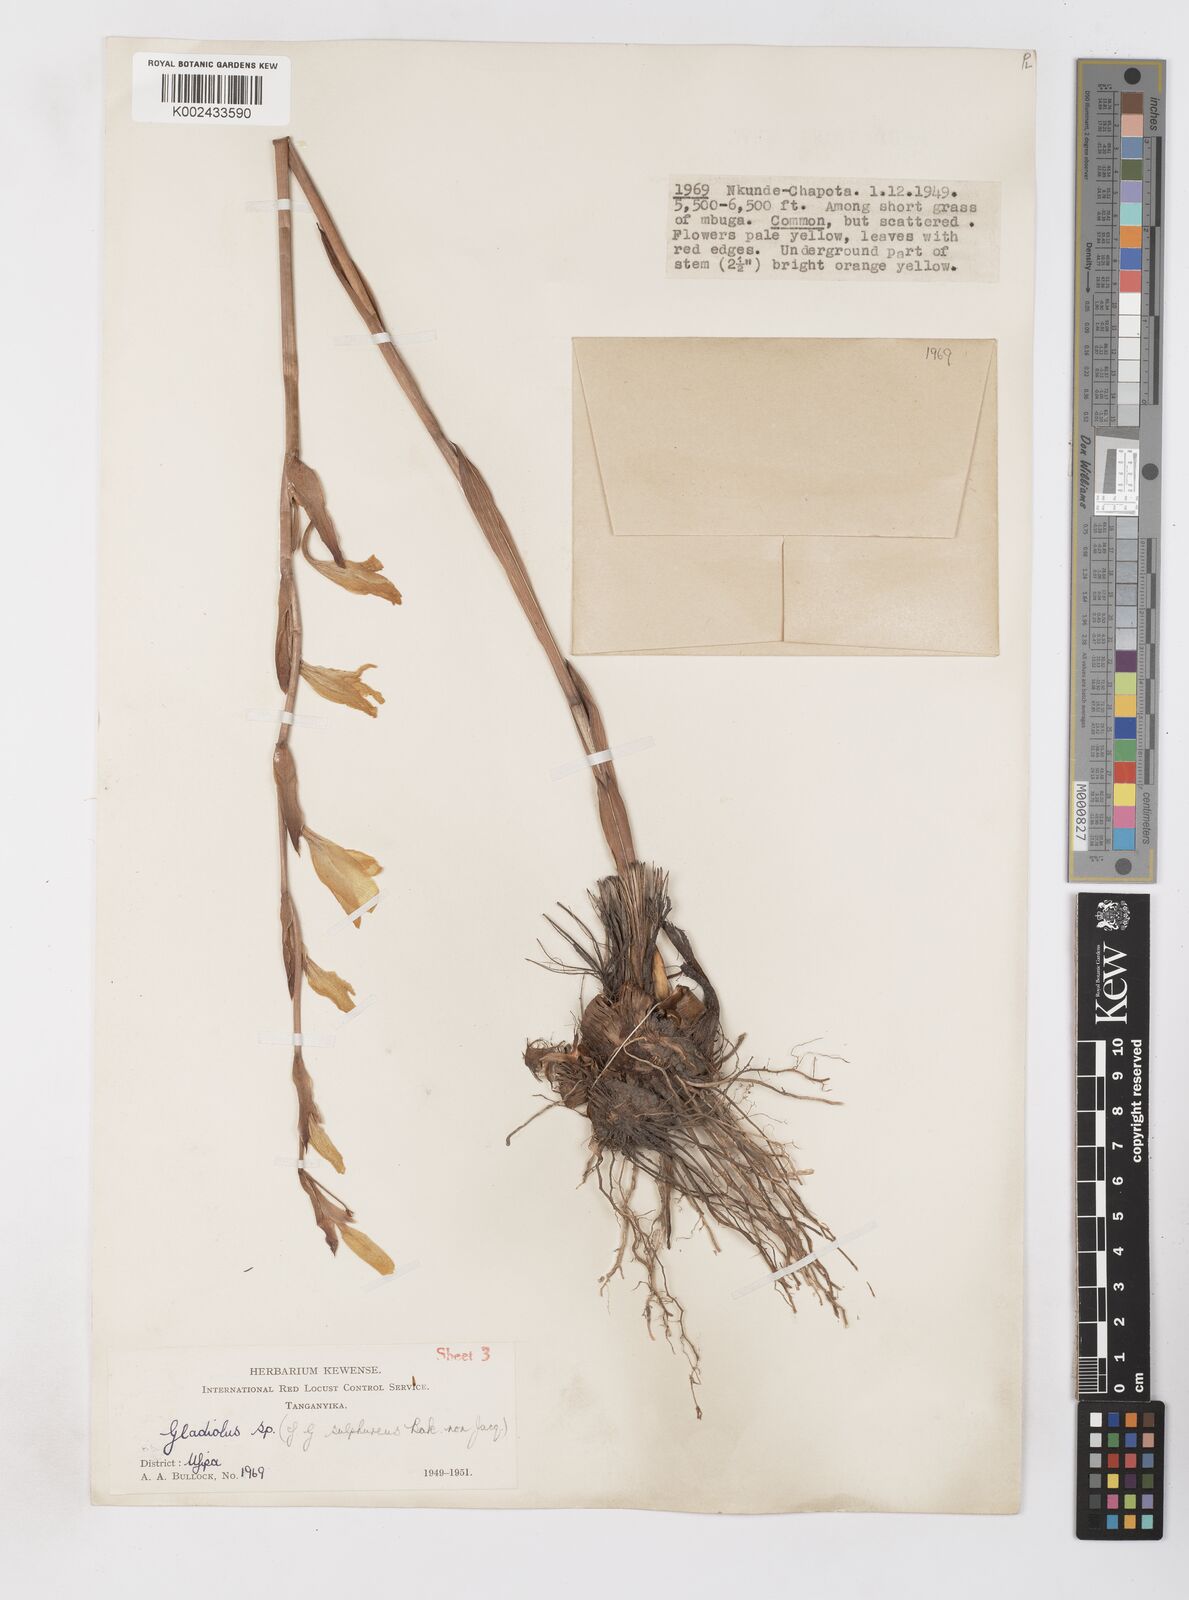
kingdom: Plantae
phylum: Tracheophyta
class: Liliopsida
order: Asparagales
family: Iridaceae
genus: Gladiolus
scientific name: Gladiolus melleri
